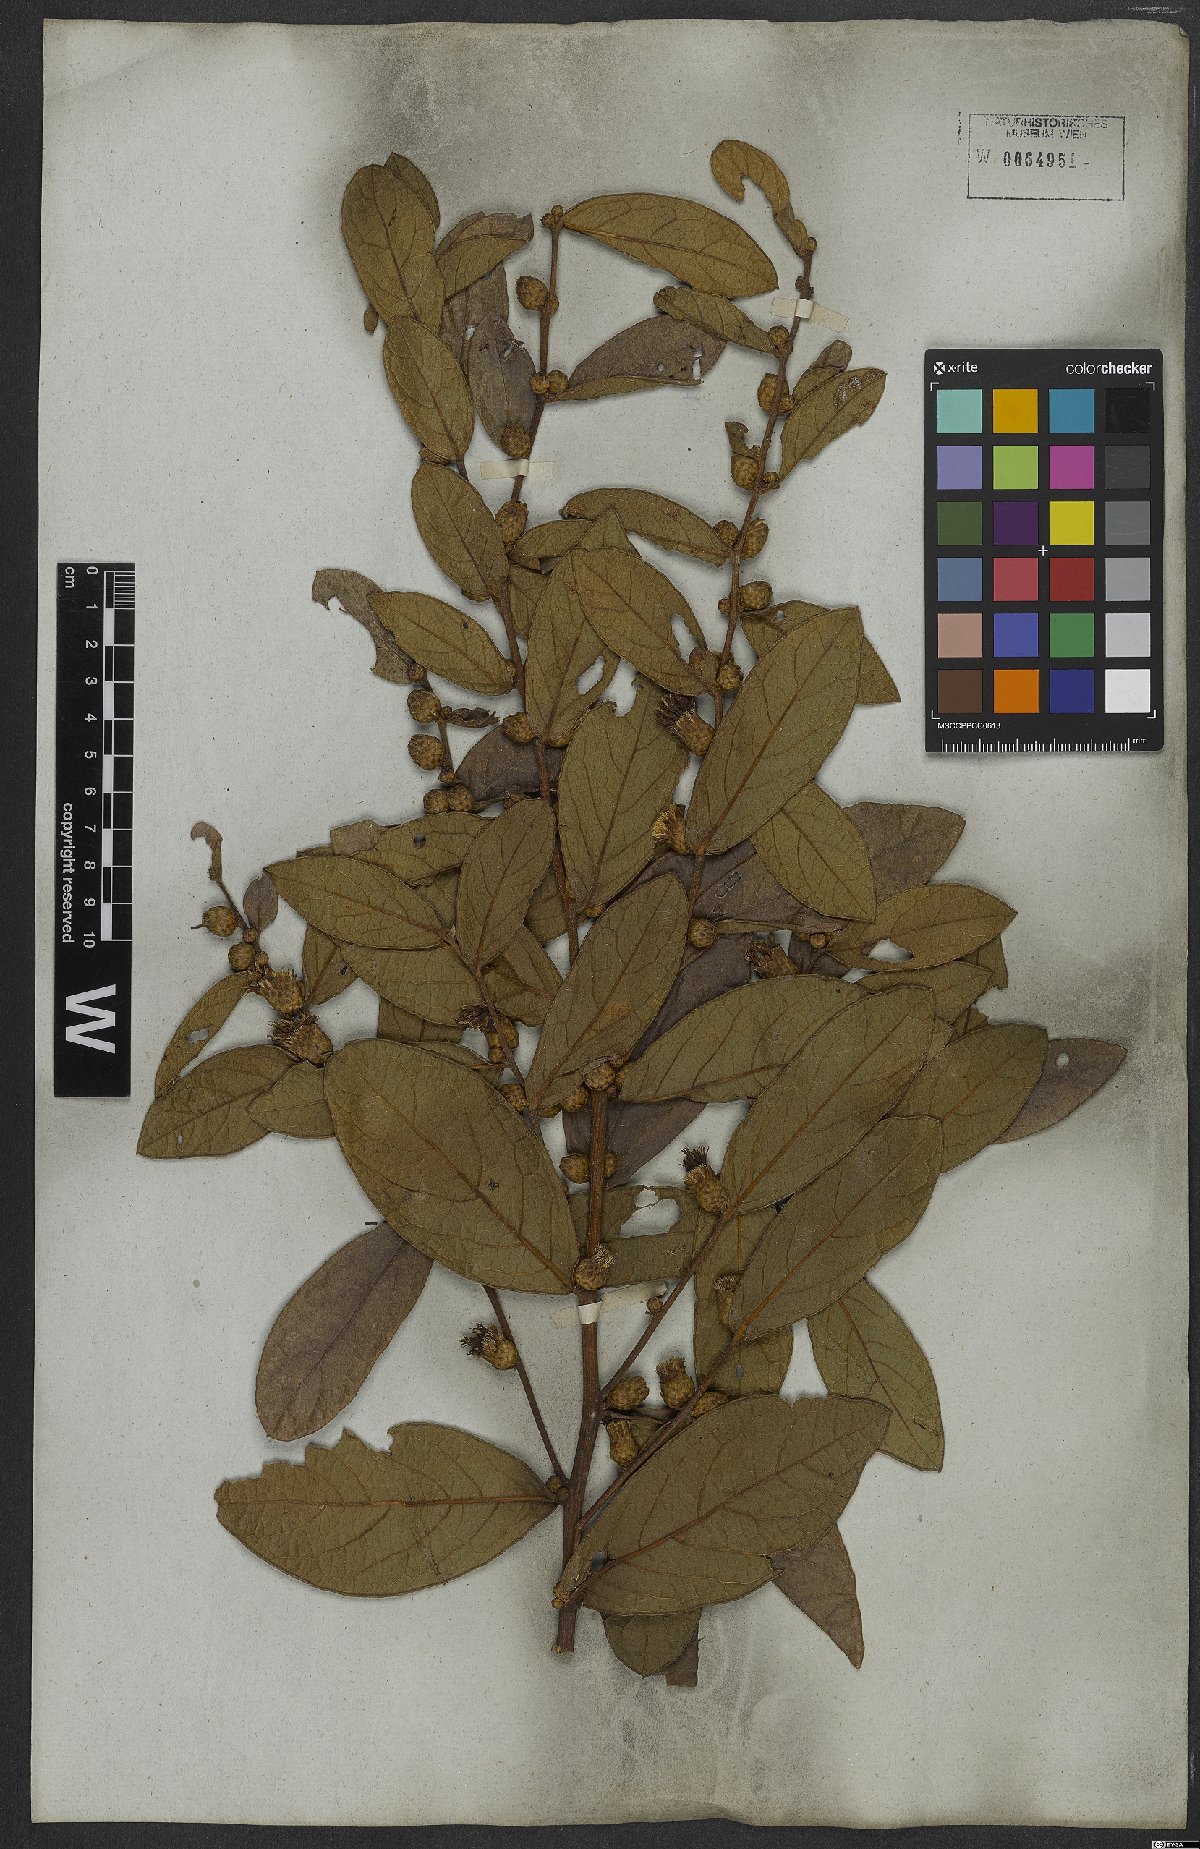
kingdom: Plantae
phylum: Tracheophyta
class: Magnoliopsida
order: Asterales
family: Asteraceae
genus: Lessingianthus
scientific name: Lessingianthus zuccarinianus
